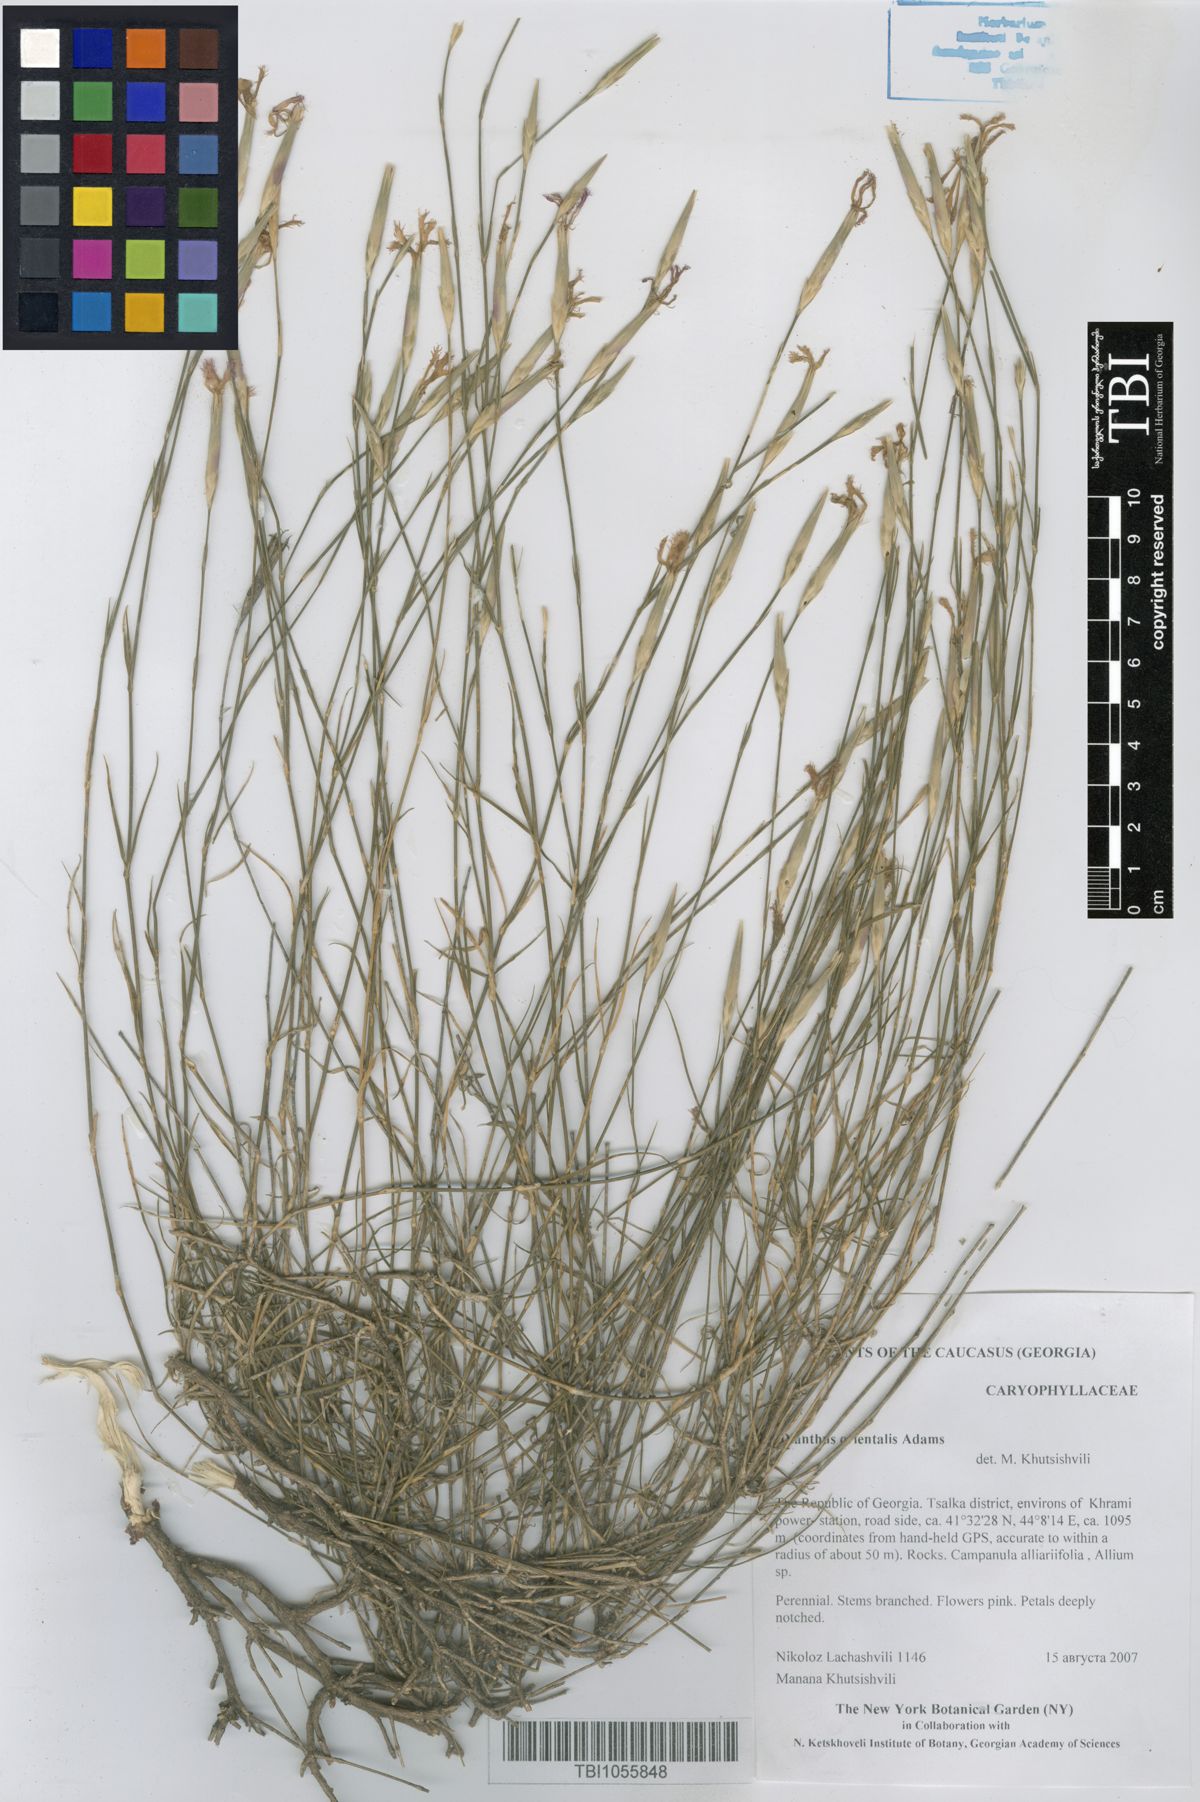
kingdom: Plantae
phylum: Tracheophyta
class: Magnoliopsida
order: Caryophyllales
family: Caryophyllaceae
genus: Dianthus
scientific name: Dianthus orientalis
